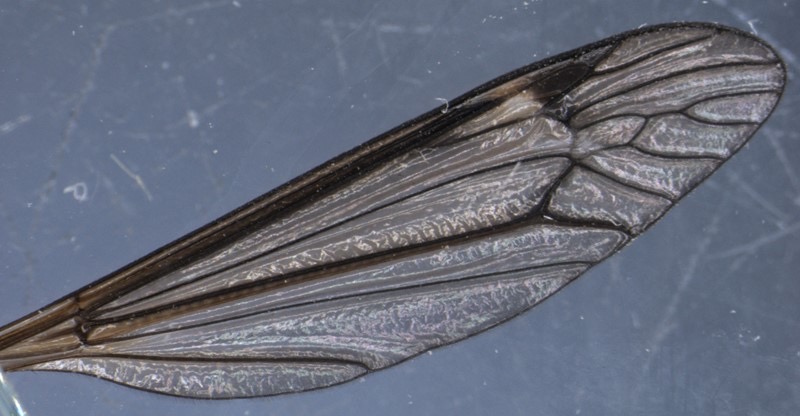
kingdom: Animalia
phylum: Arthropoda
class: Insecta
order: Diptera
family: Tipulidae
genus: Tipula
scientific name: Tipula coerulescens
